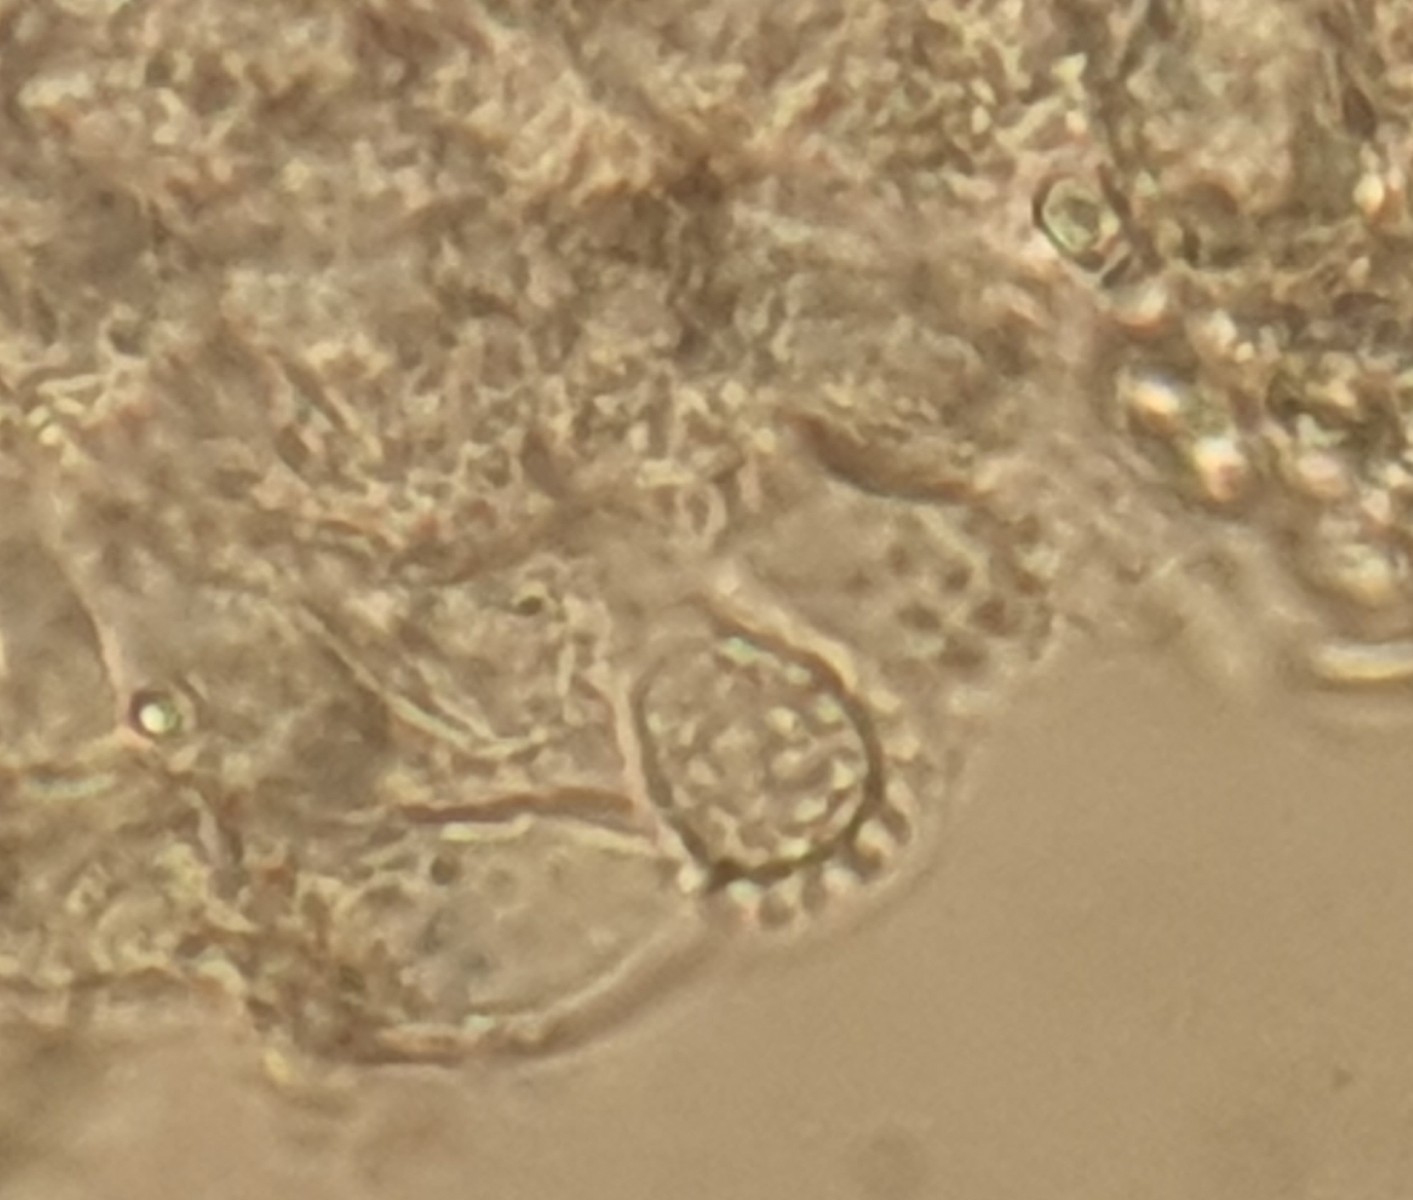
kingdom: Fungi
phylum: Basidiomycota
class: Agaricomycetes
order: Agaricales
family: Mycenaceae
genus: Mycena
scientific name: Mycena pseudocorticola
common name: gråblå bark-huesvamp
